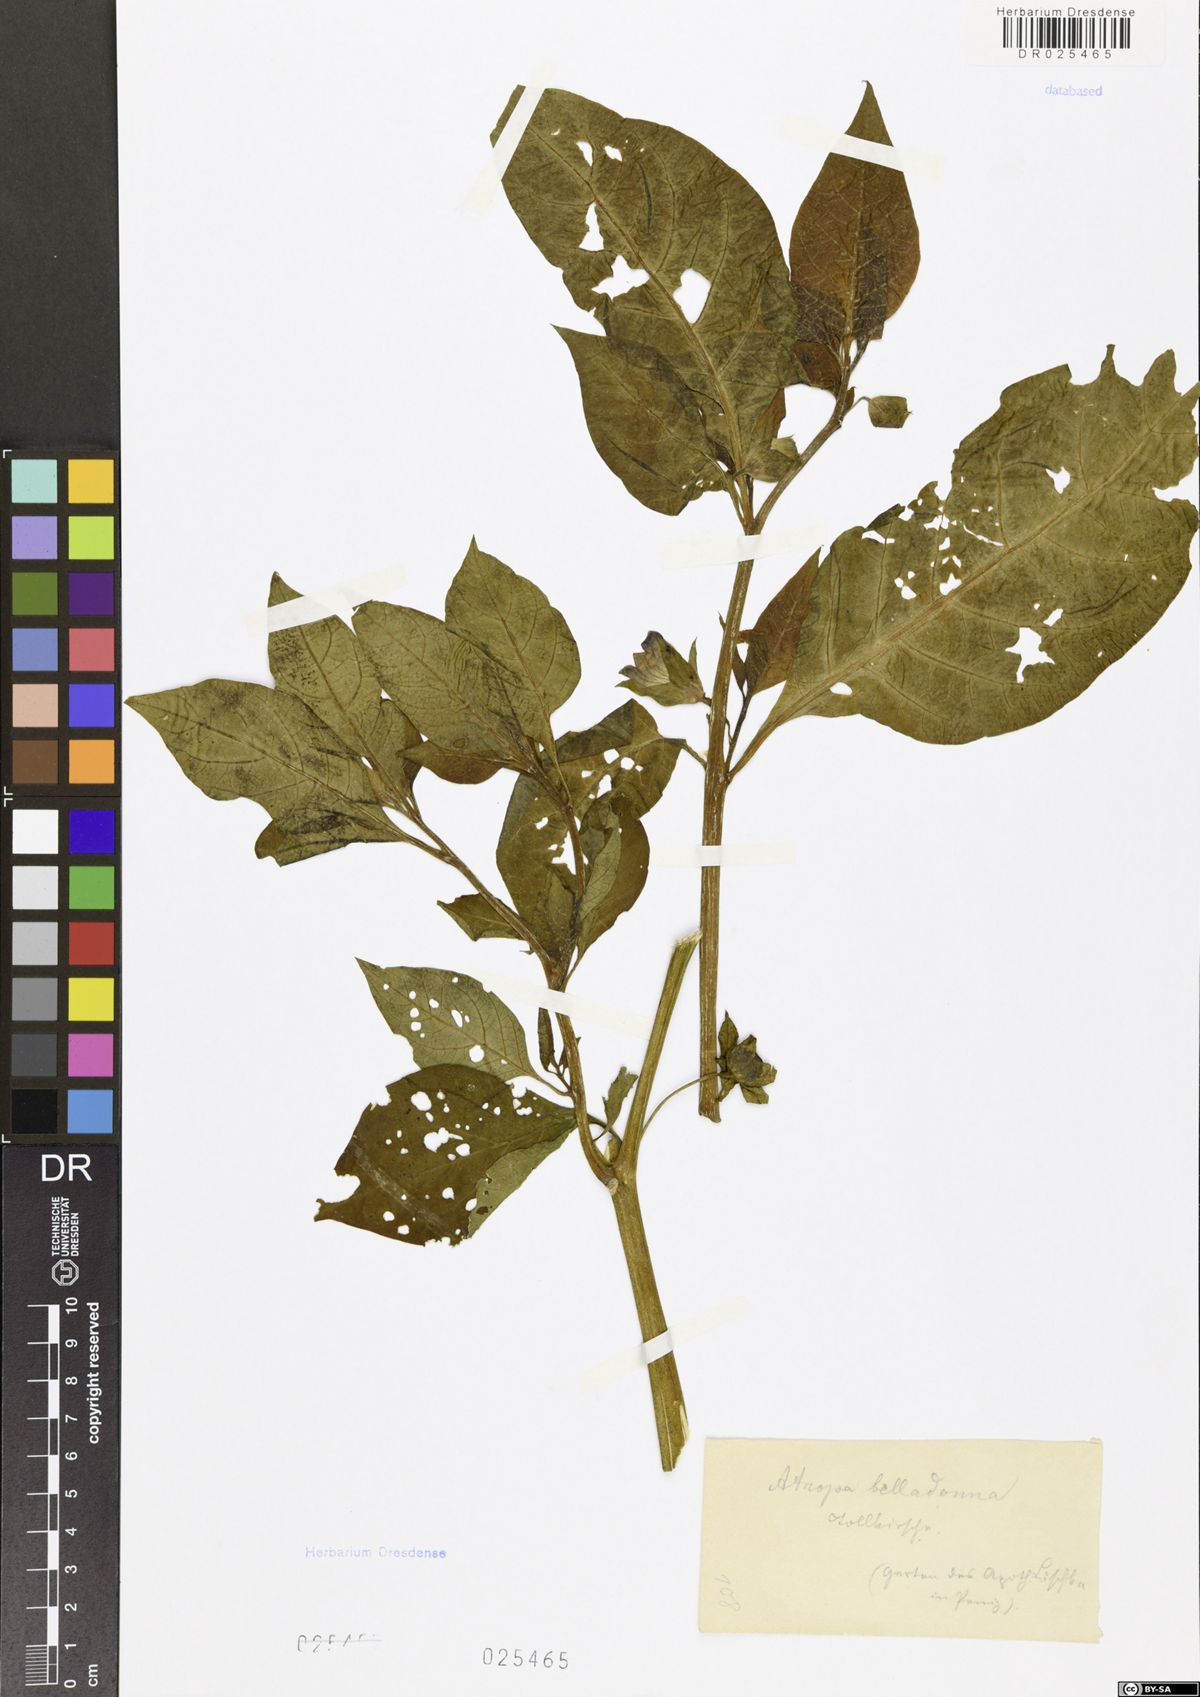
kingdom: Plantae
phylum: Tracheophyta
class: Magnoliopsida
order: Solanales
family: Solanaceae
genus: Atropa
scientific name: Atropa belladonna
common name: Deadly nightshade
